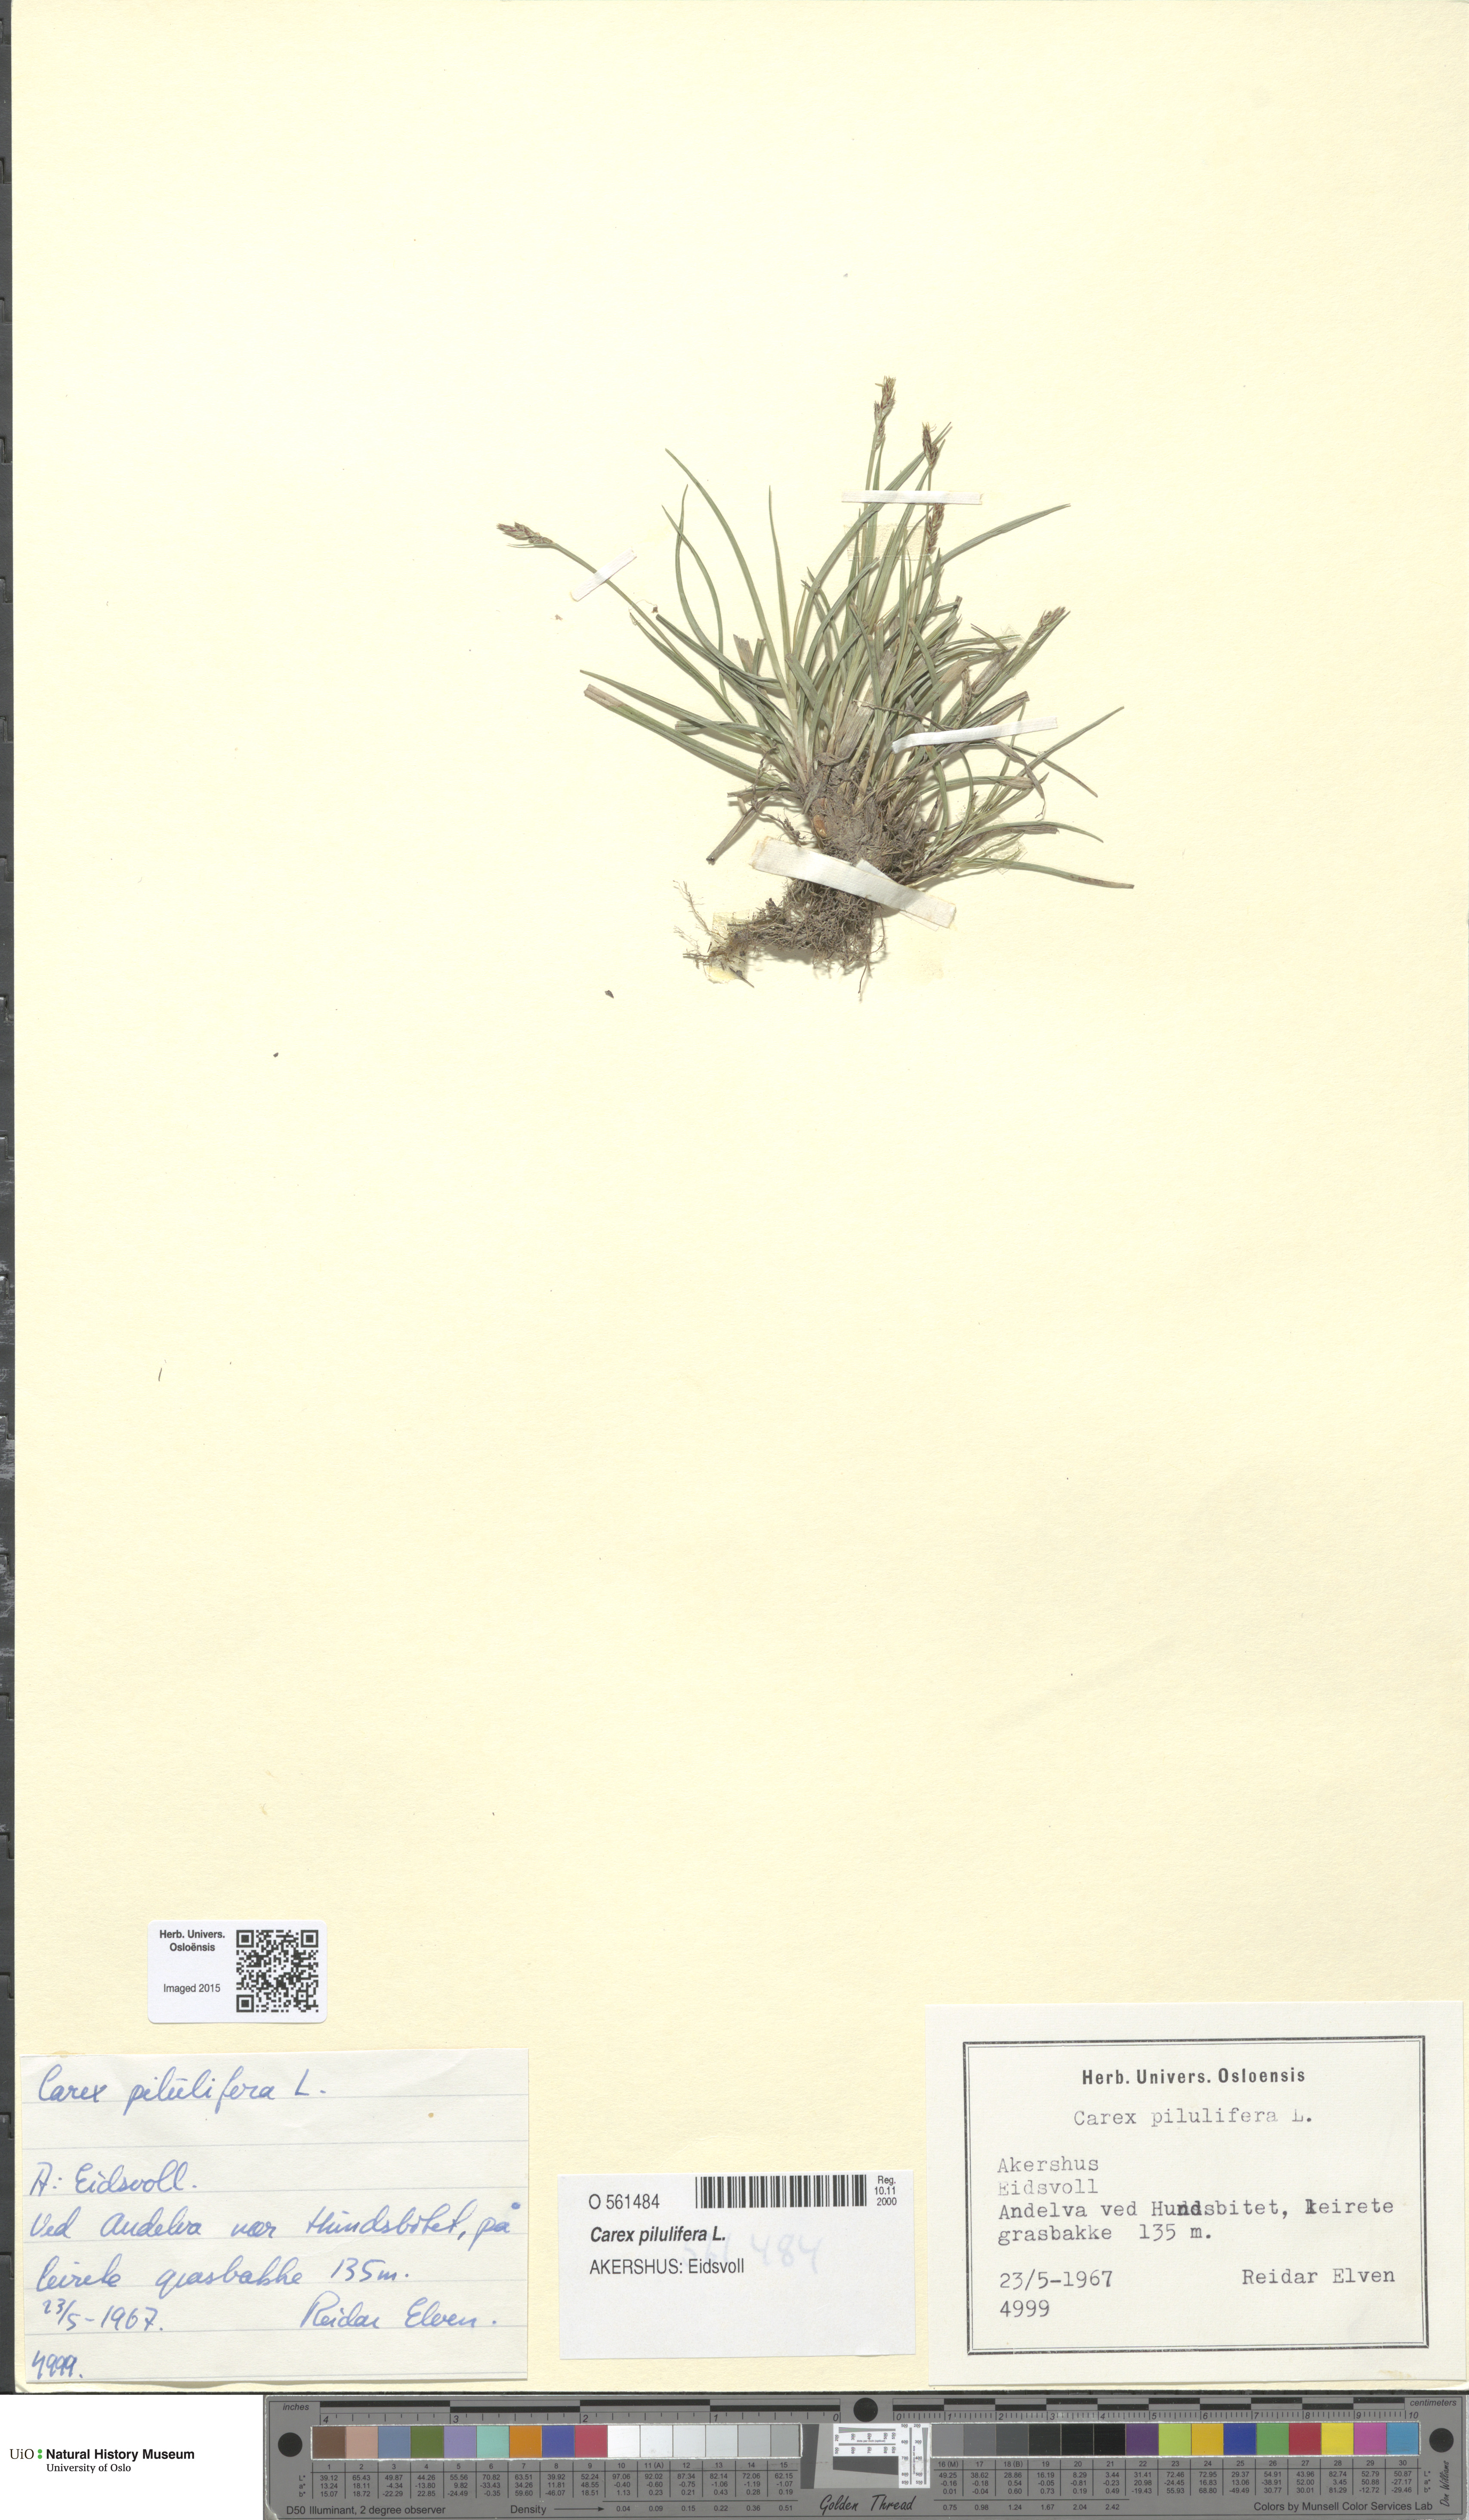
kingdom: Plantae
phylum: Tracheophyta
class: Liliopsida
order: Poales
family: Cyperaceae
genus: Carex
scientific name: Carex pilulifera
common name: Pill sedge
